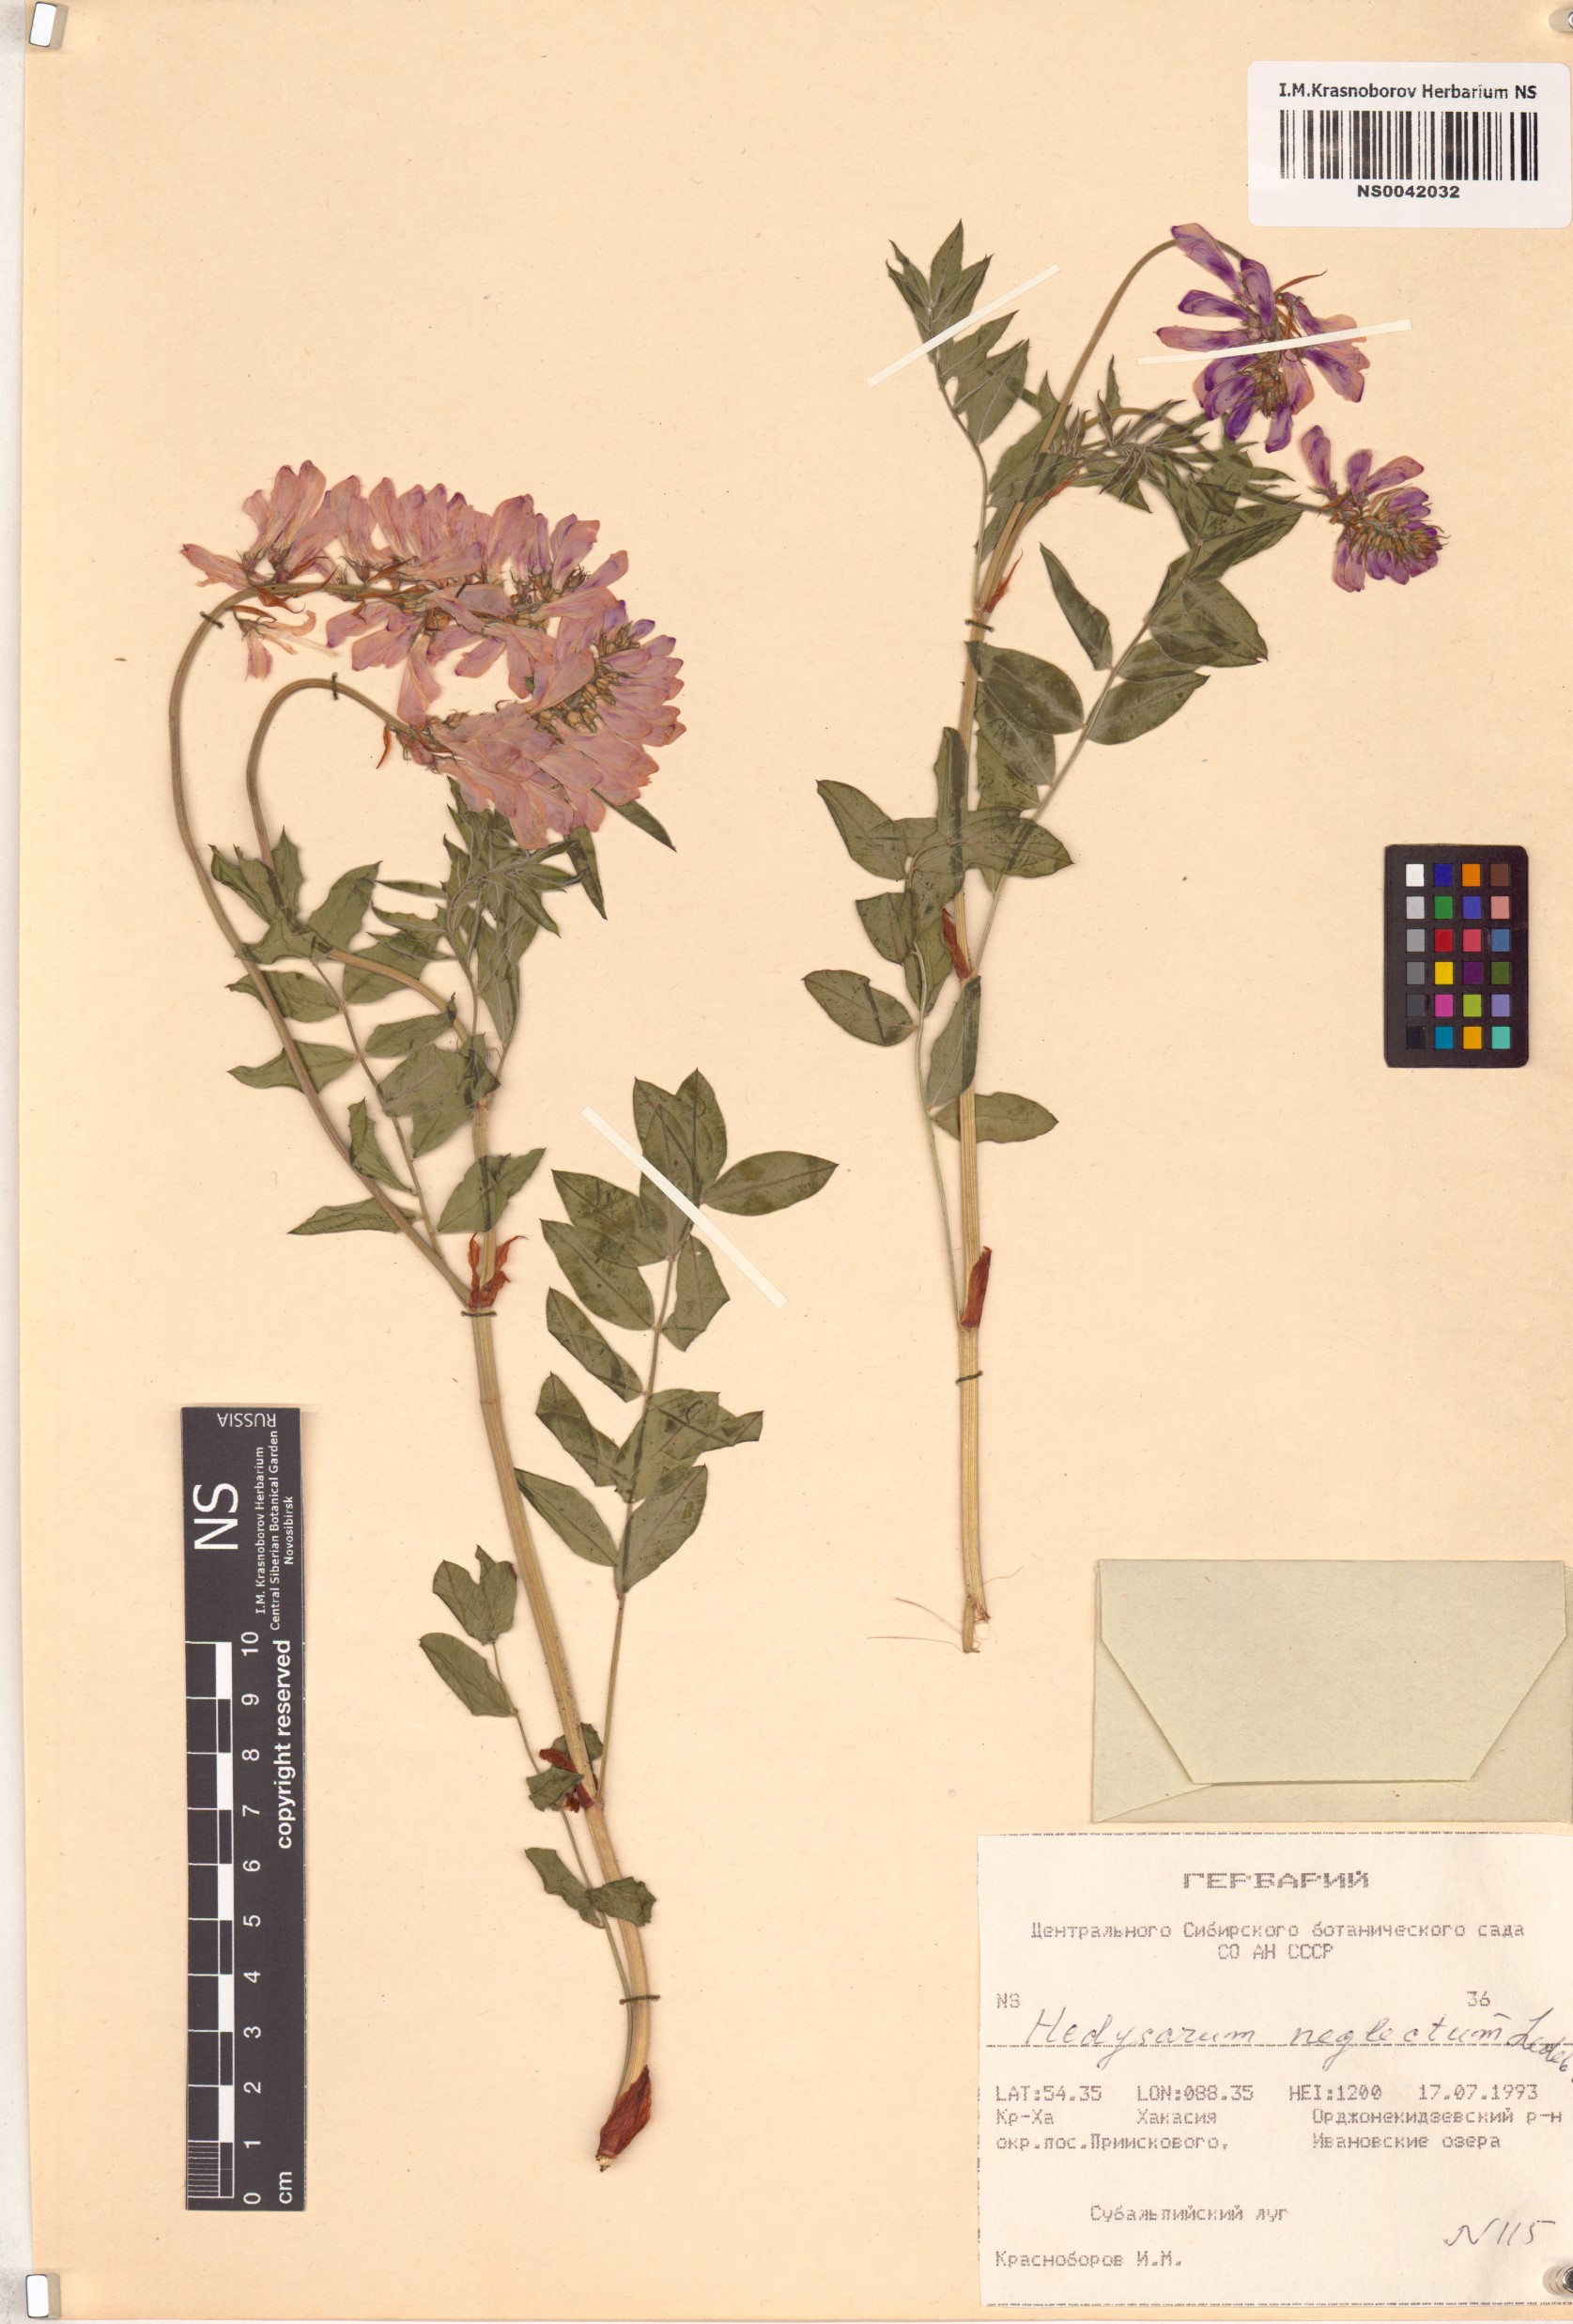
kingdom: Plantae
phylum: Tracheophyta
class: Magnoliopsida
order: Fabales
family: Fabaceae
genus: Hedysarum
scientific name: Hedysarum neglectum
